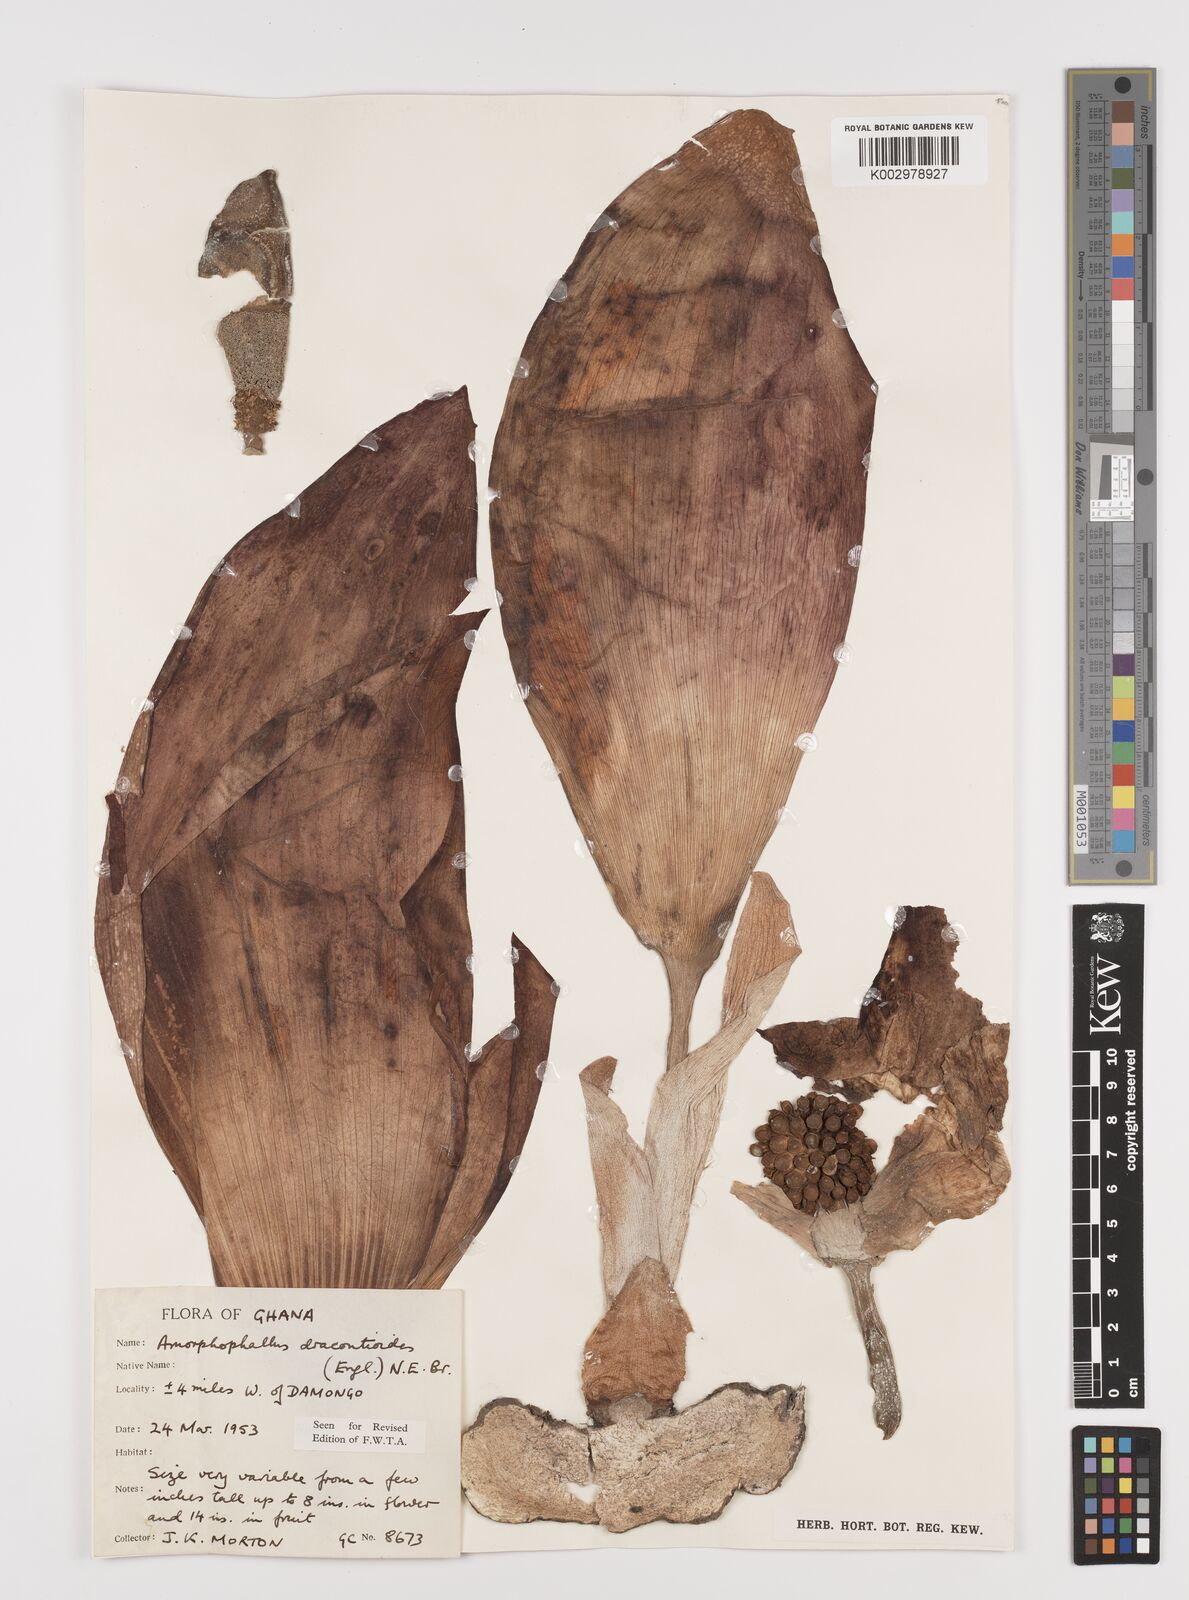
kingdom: Plantae
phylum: Tracheophyta
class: Liliopsida
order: Alismatales
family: Araceae
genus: Amorphophallus
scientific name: Amorphophallus dracontioides
